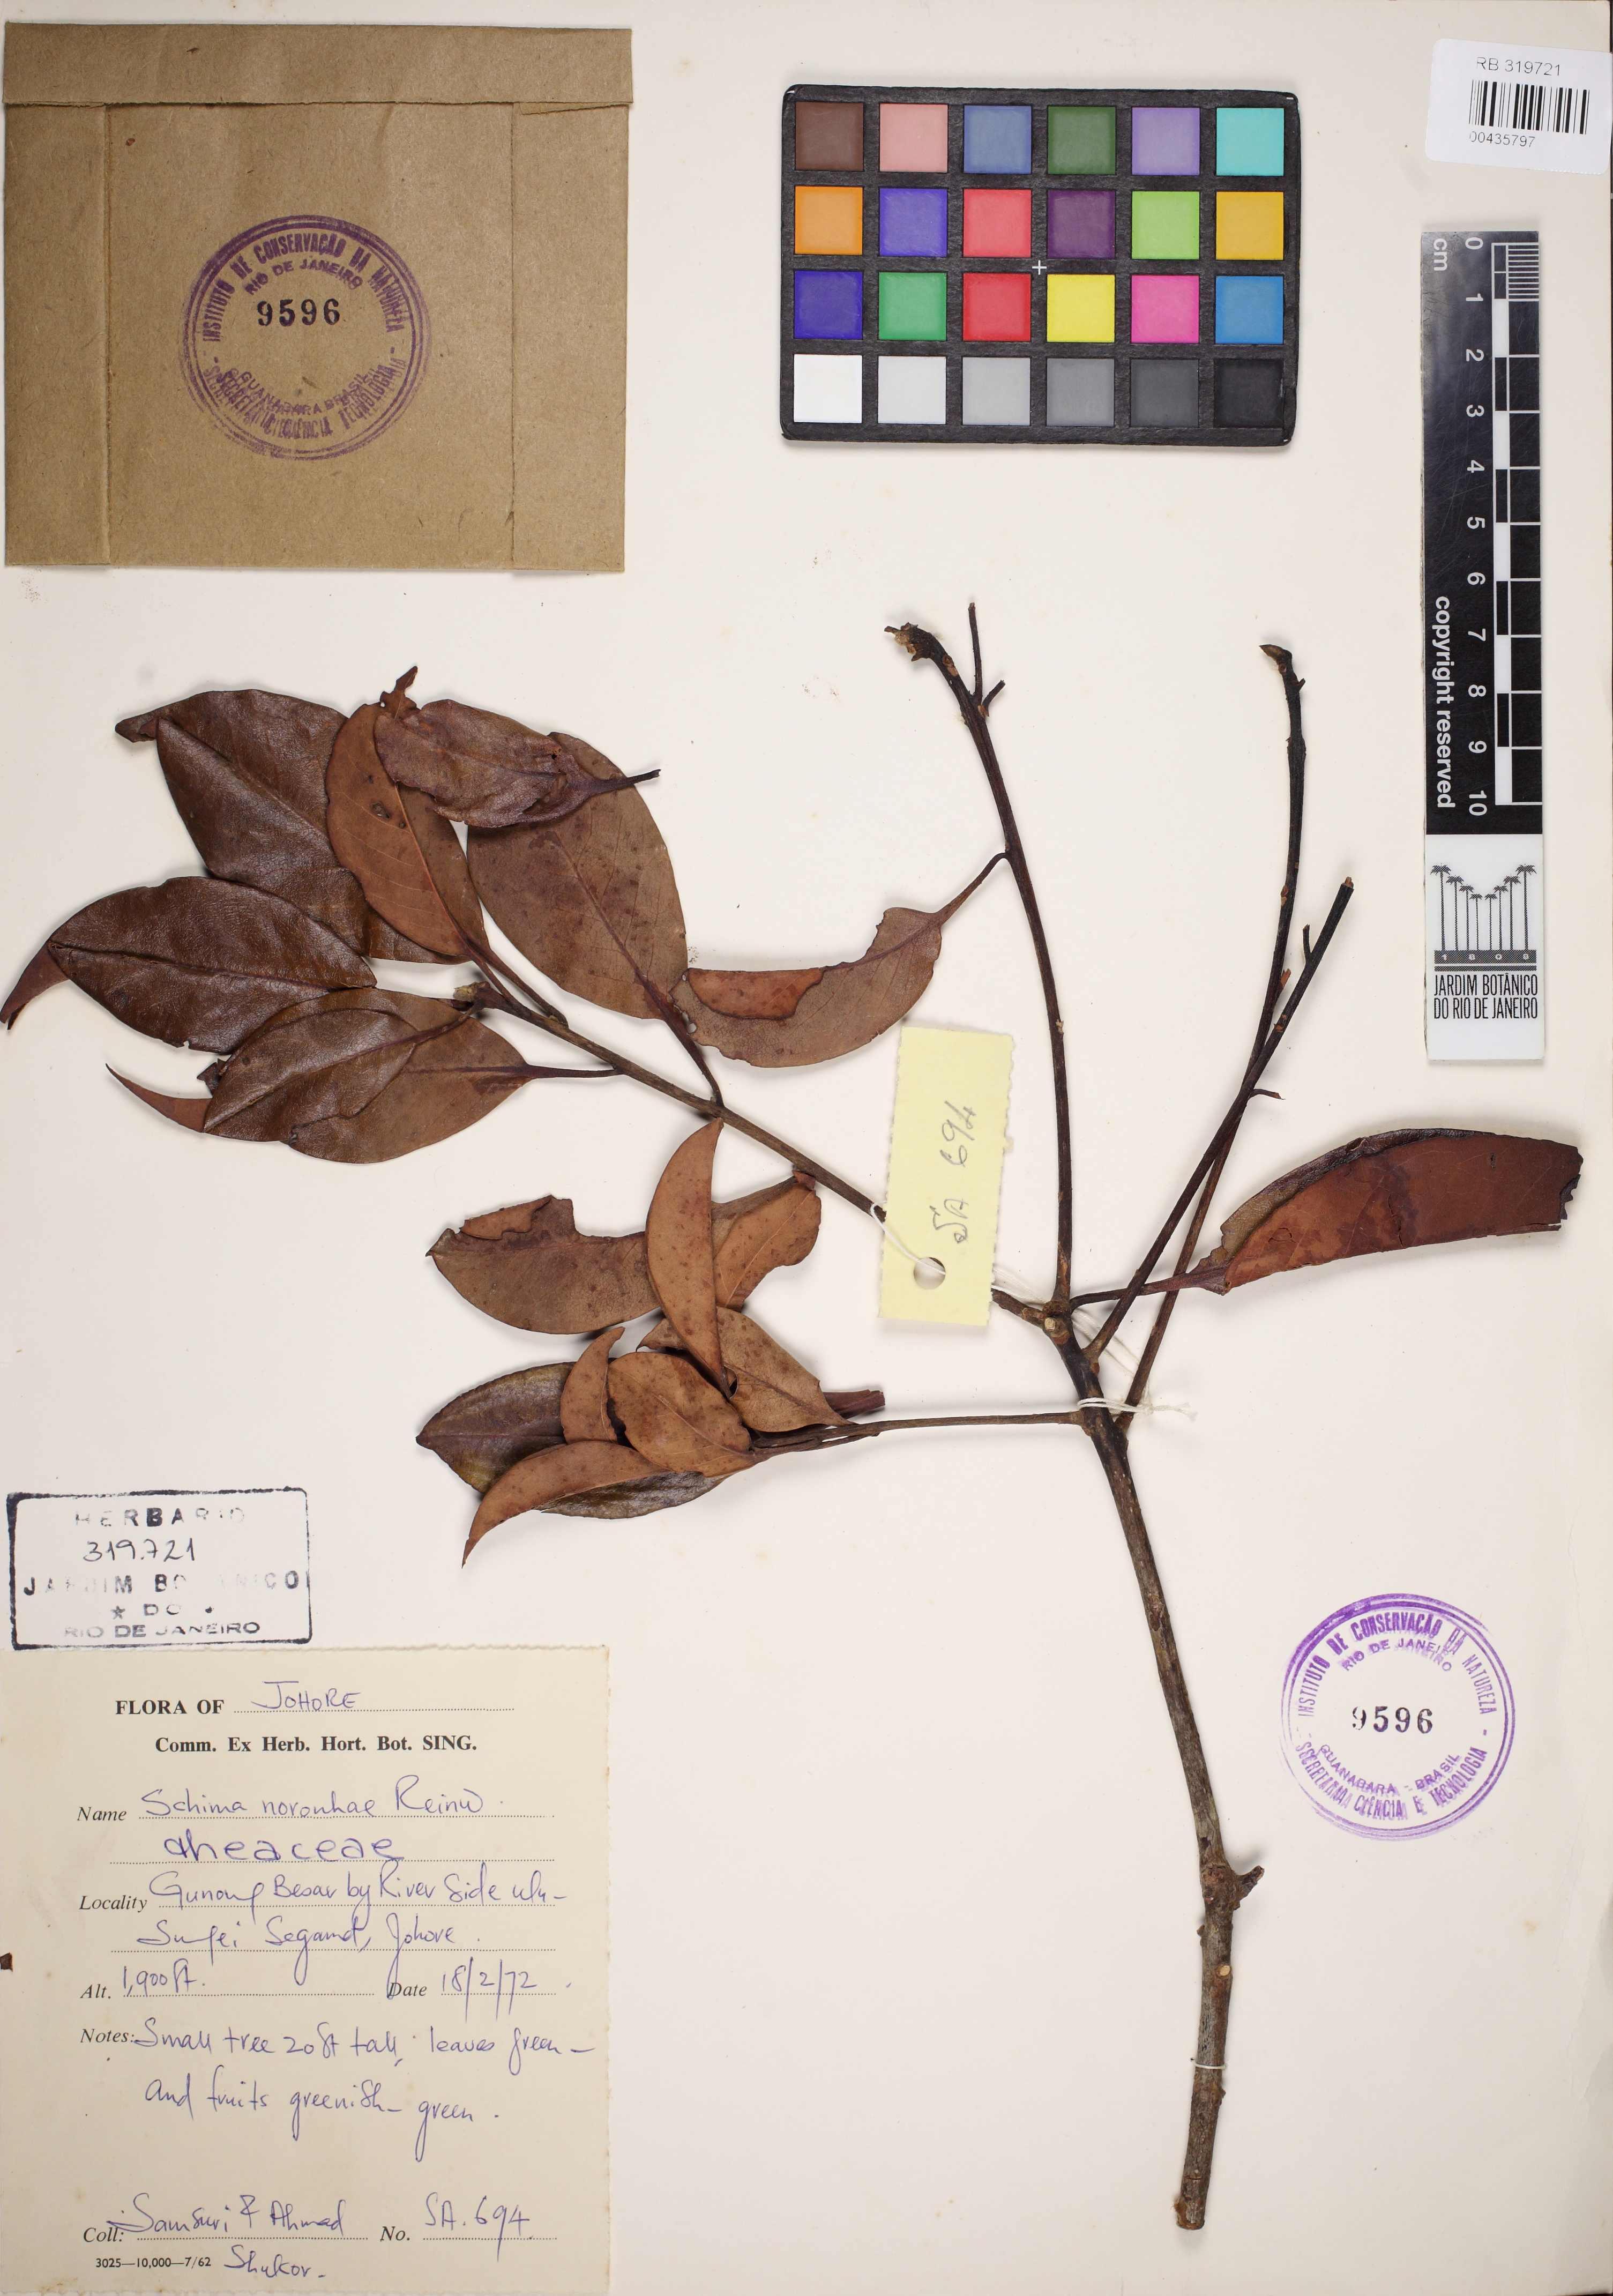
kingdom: Plantae
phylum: Tracheophyta
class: Magnoliopsida
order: Ericales
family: Theaceae
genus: Schima
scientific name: Schima noronhae
